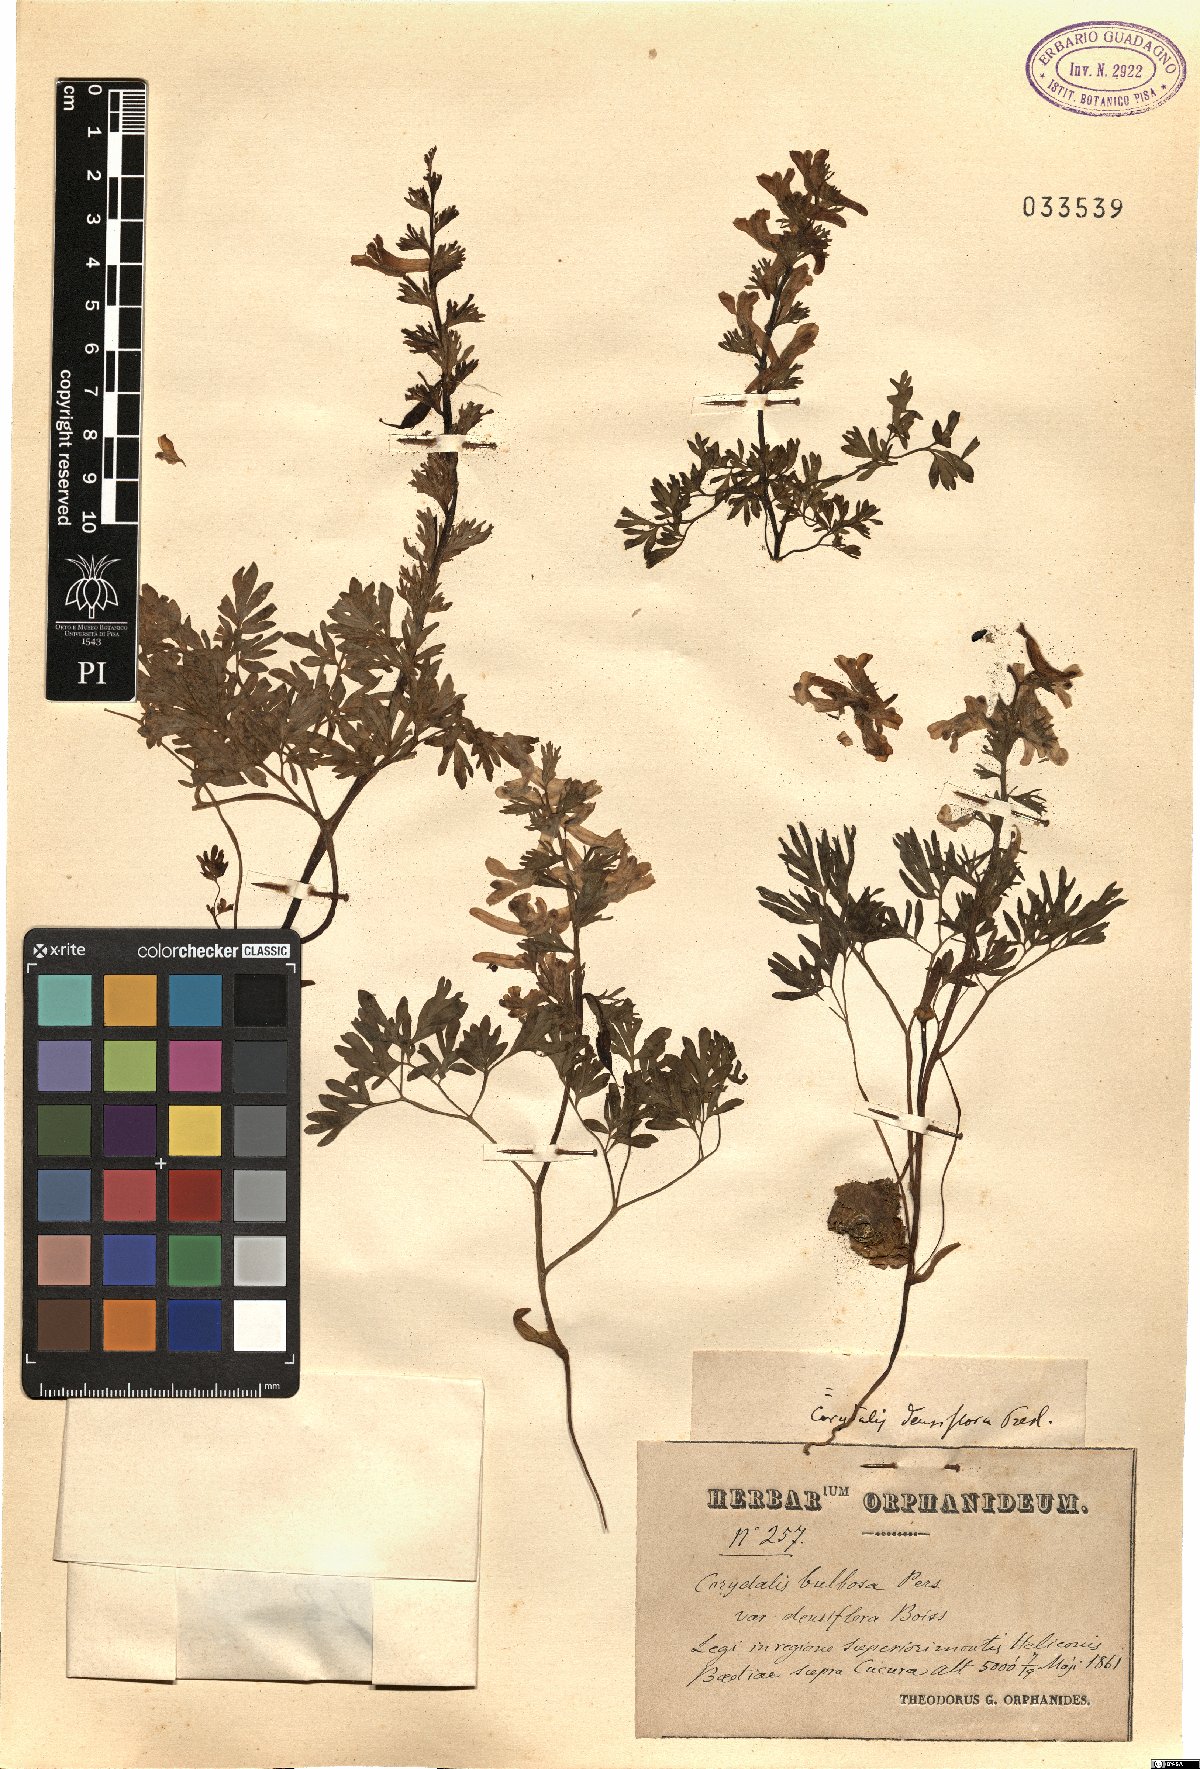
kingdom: Plantae
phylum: Tracheophyta
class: Magnoliopsida
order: Ranunculales
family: Papaveraceae
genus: Corydalis
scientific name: Corydalis densiflora
